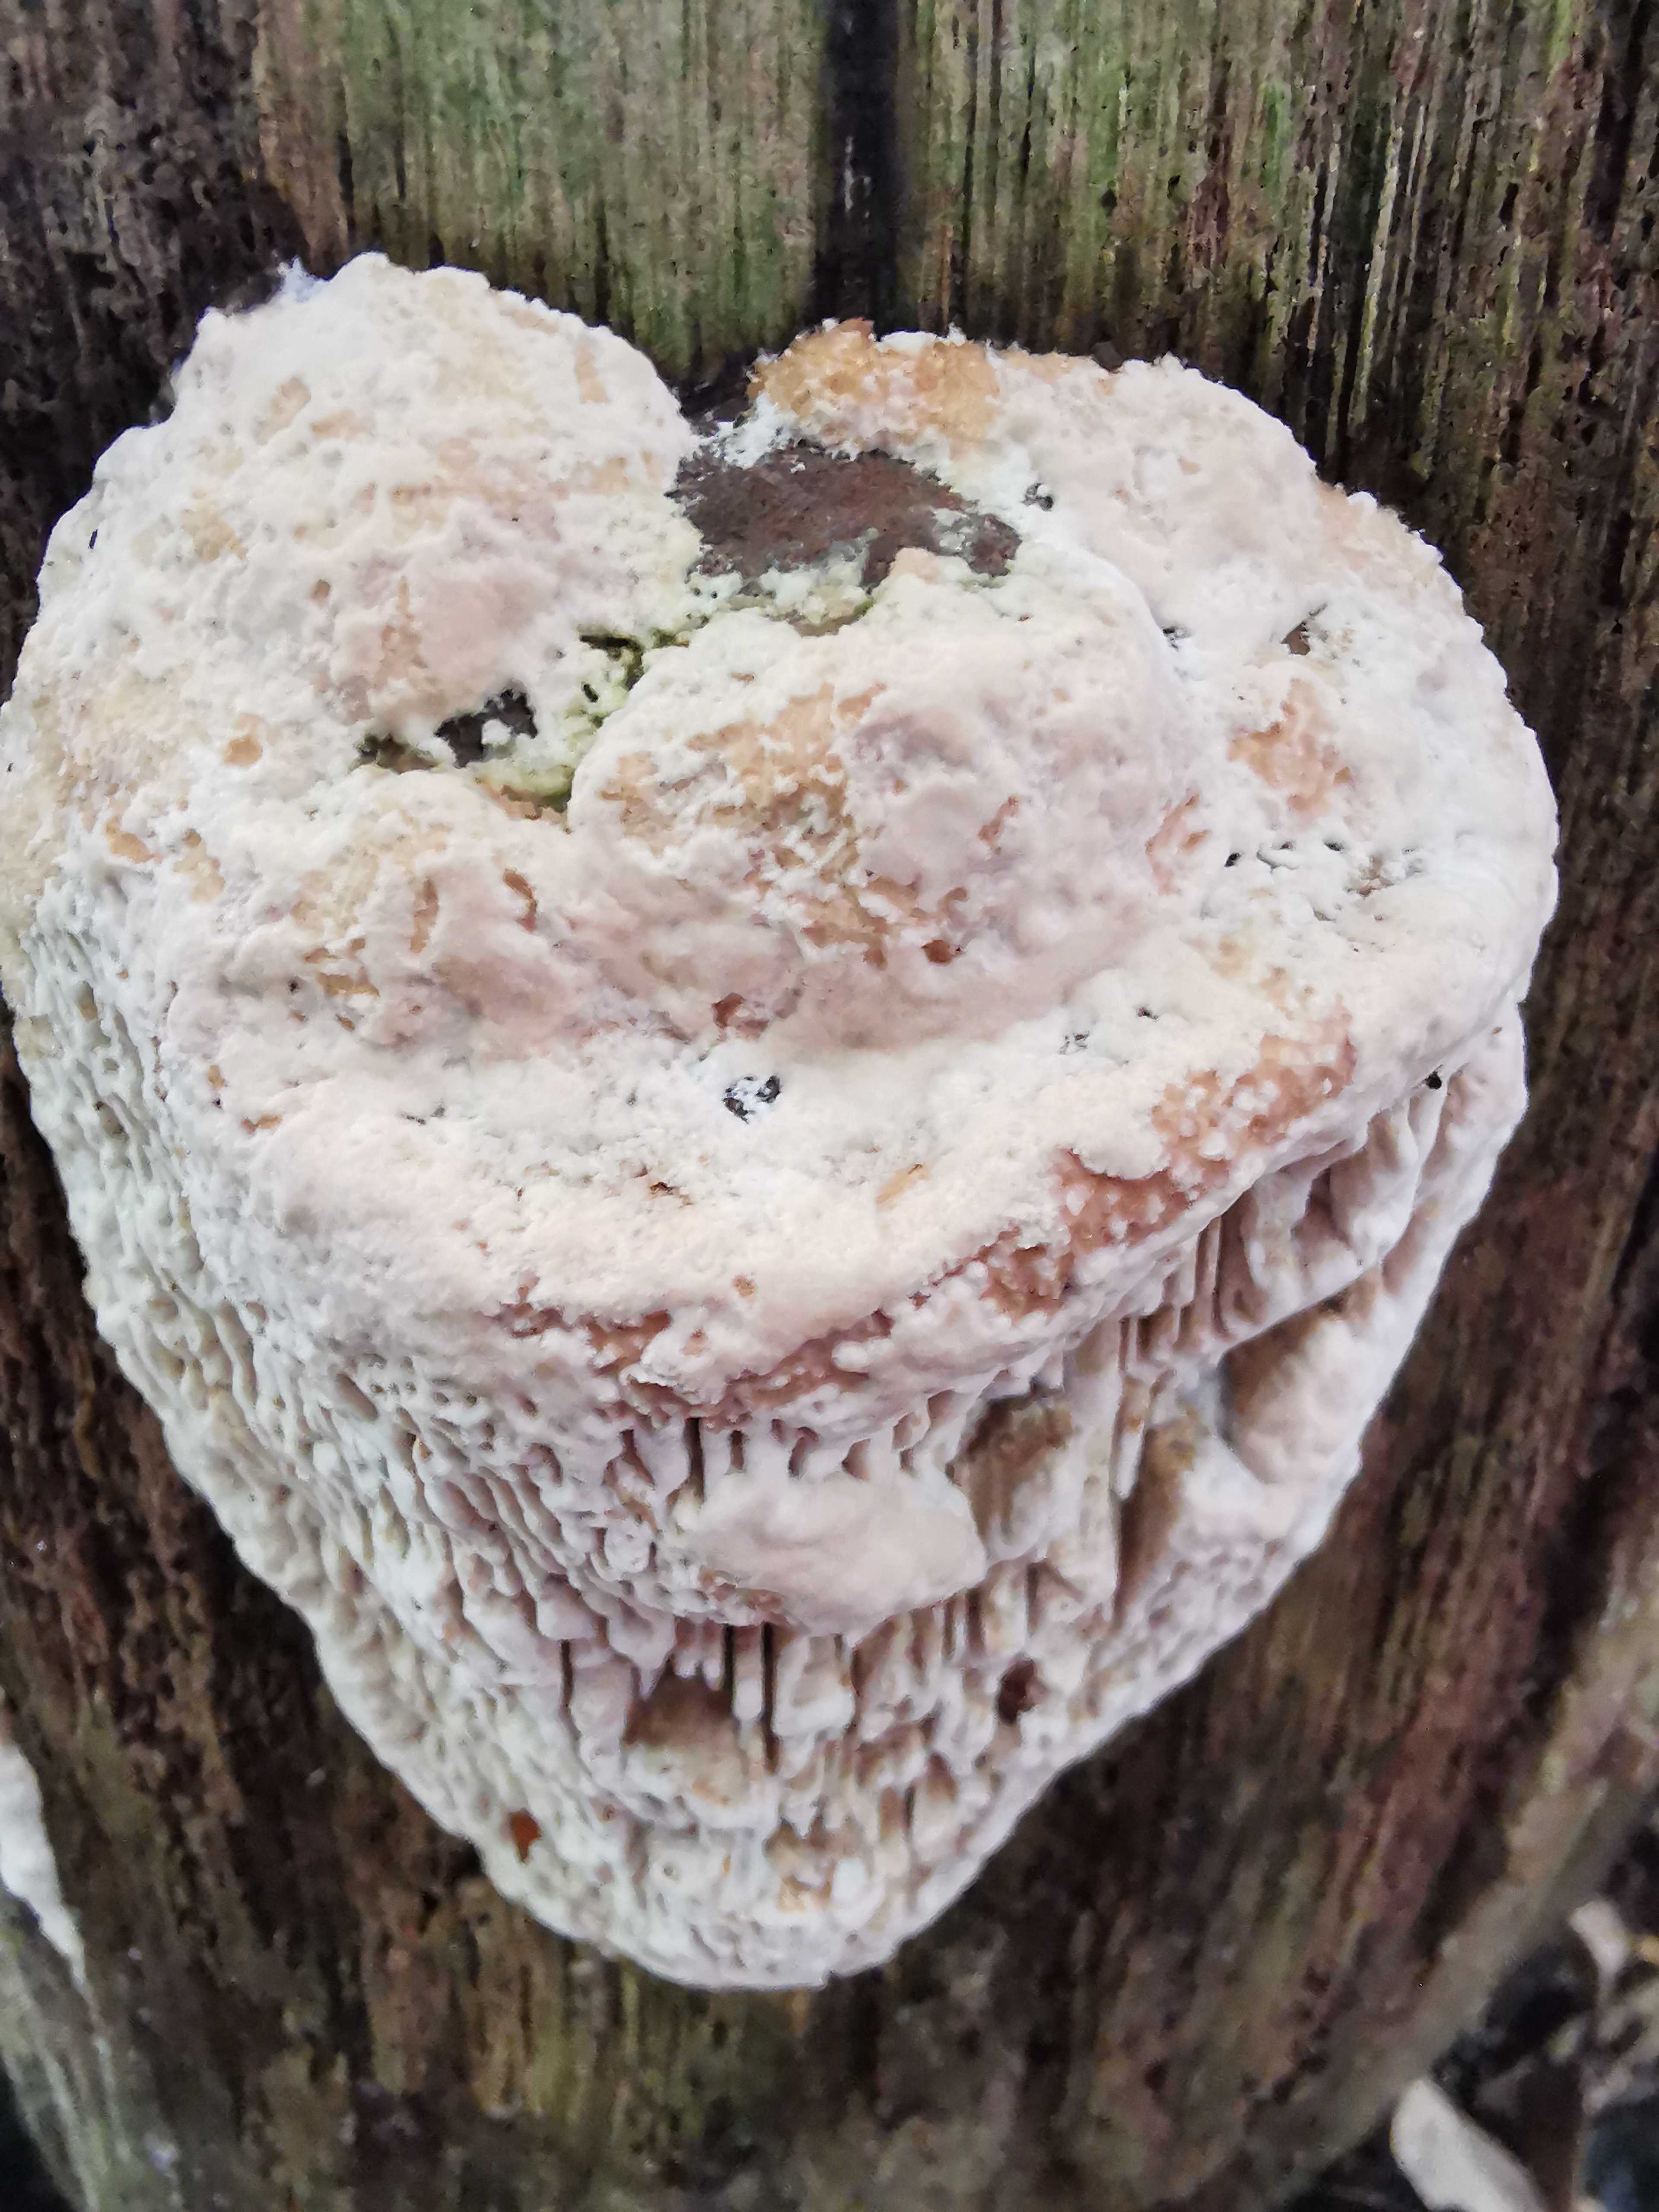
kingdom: Fungi
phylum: Basidiomycota
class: Agaricomycetes
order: Polyporales
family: Fomitopsidaceae
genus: Daedalea
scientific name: Daedalea quercina
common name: ege-labyrintsvamp
